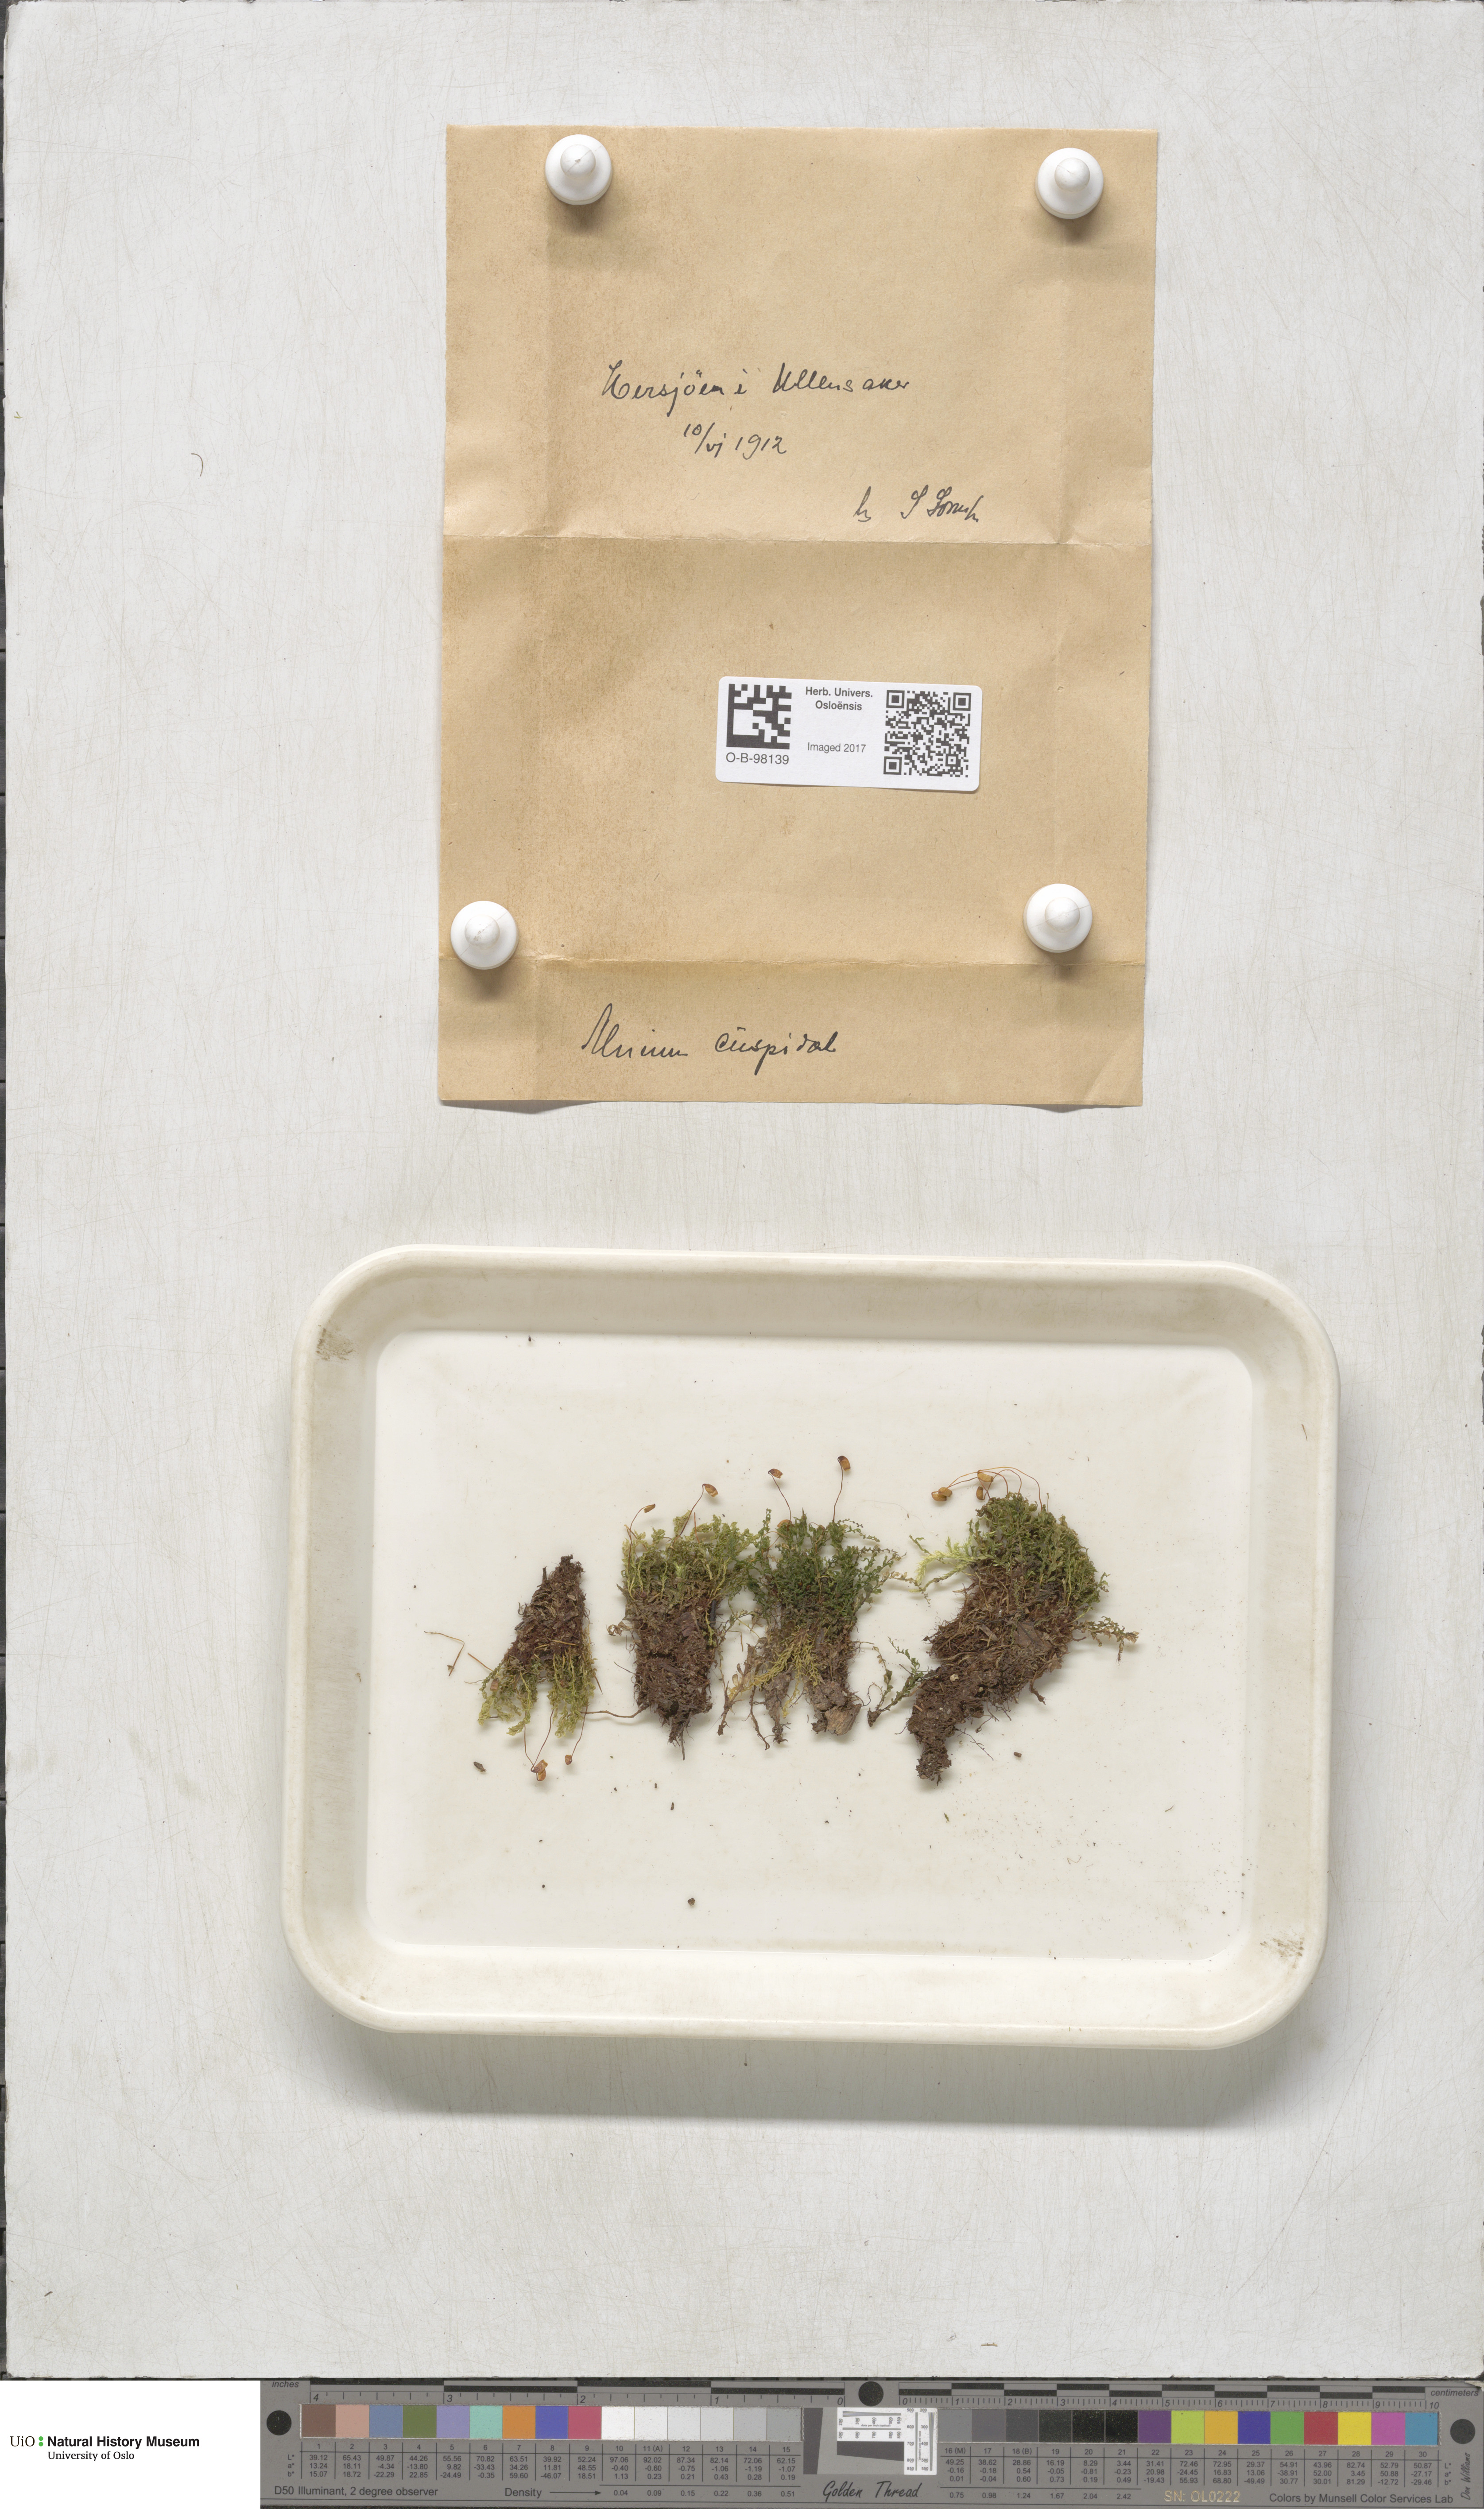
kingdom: Plantae
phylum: Bryophyta
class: Bryopsida
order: Bryales
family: Mniaceae
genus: Plagiomnium
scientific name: Plagiomnium cuspidatum
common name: Woodsy leafy moss
